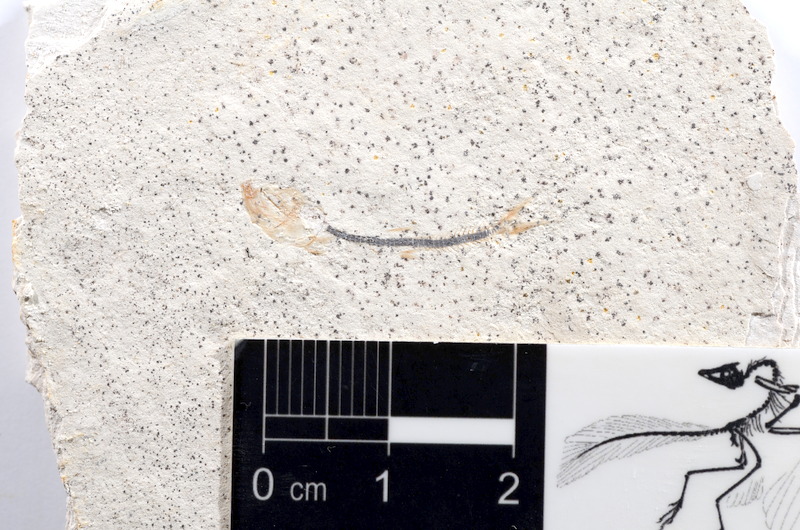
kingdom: Animalia
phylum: Chordata
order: Salmoniformes
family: Orthogonikleithridae
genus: Orthogonikleithrus
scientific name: Orthogonikleithrus hoelli
